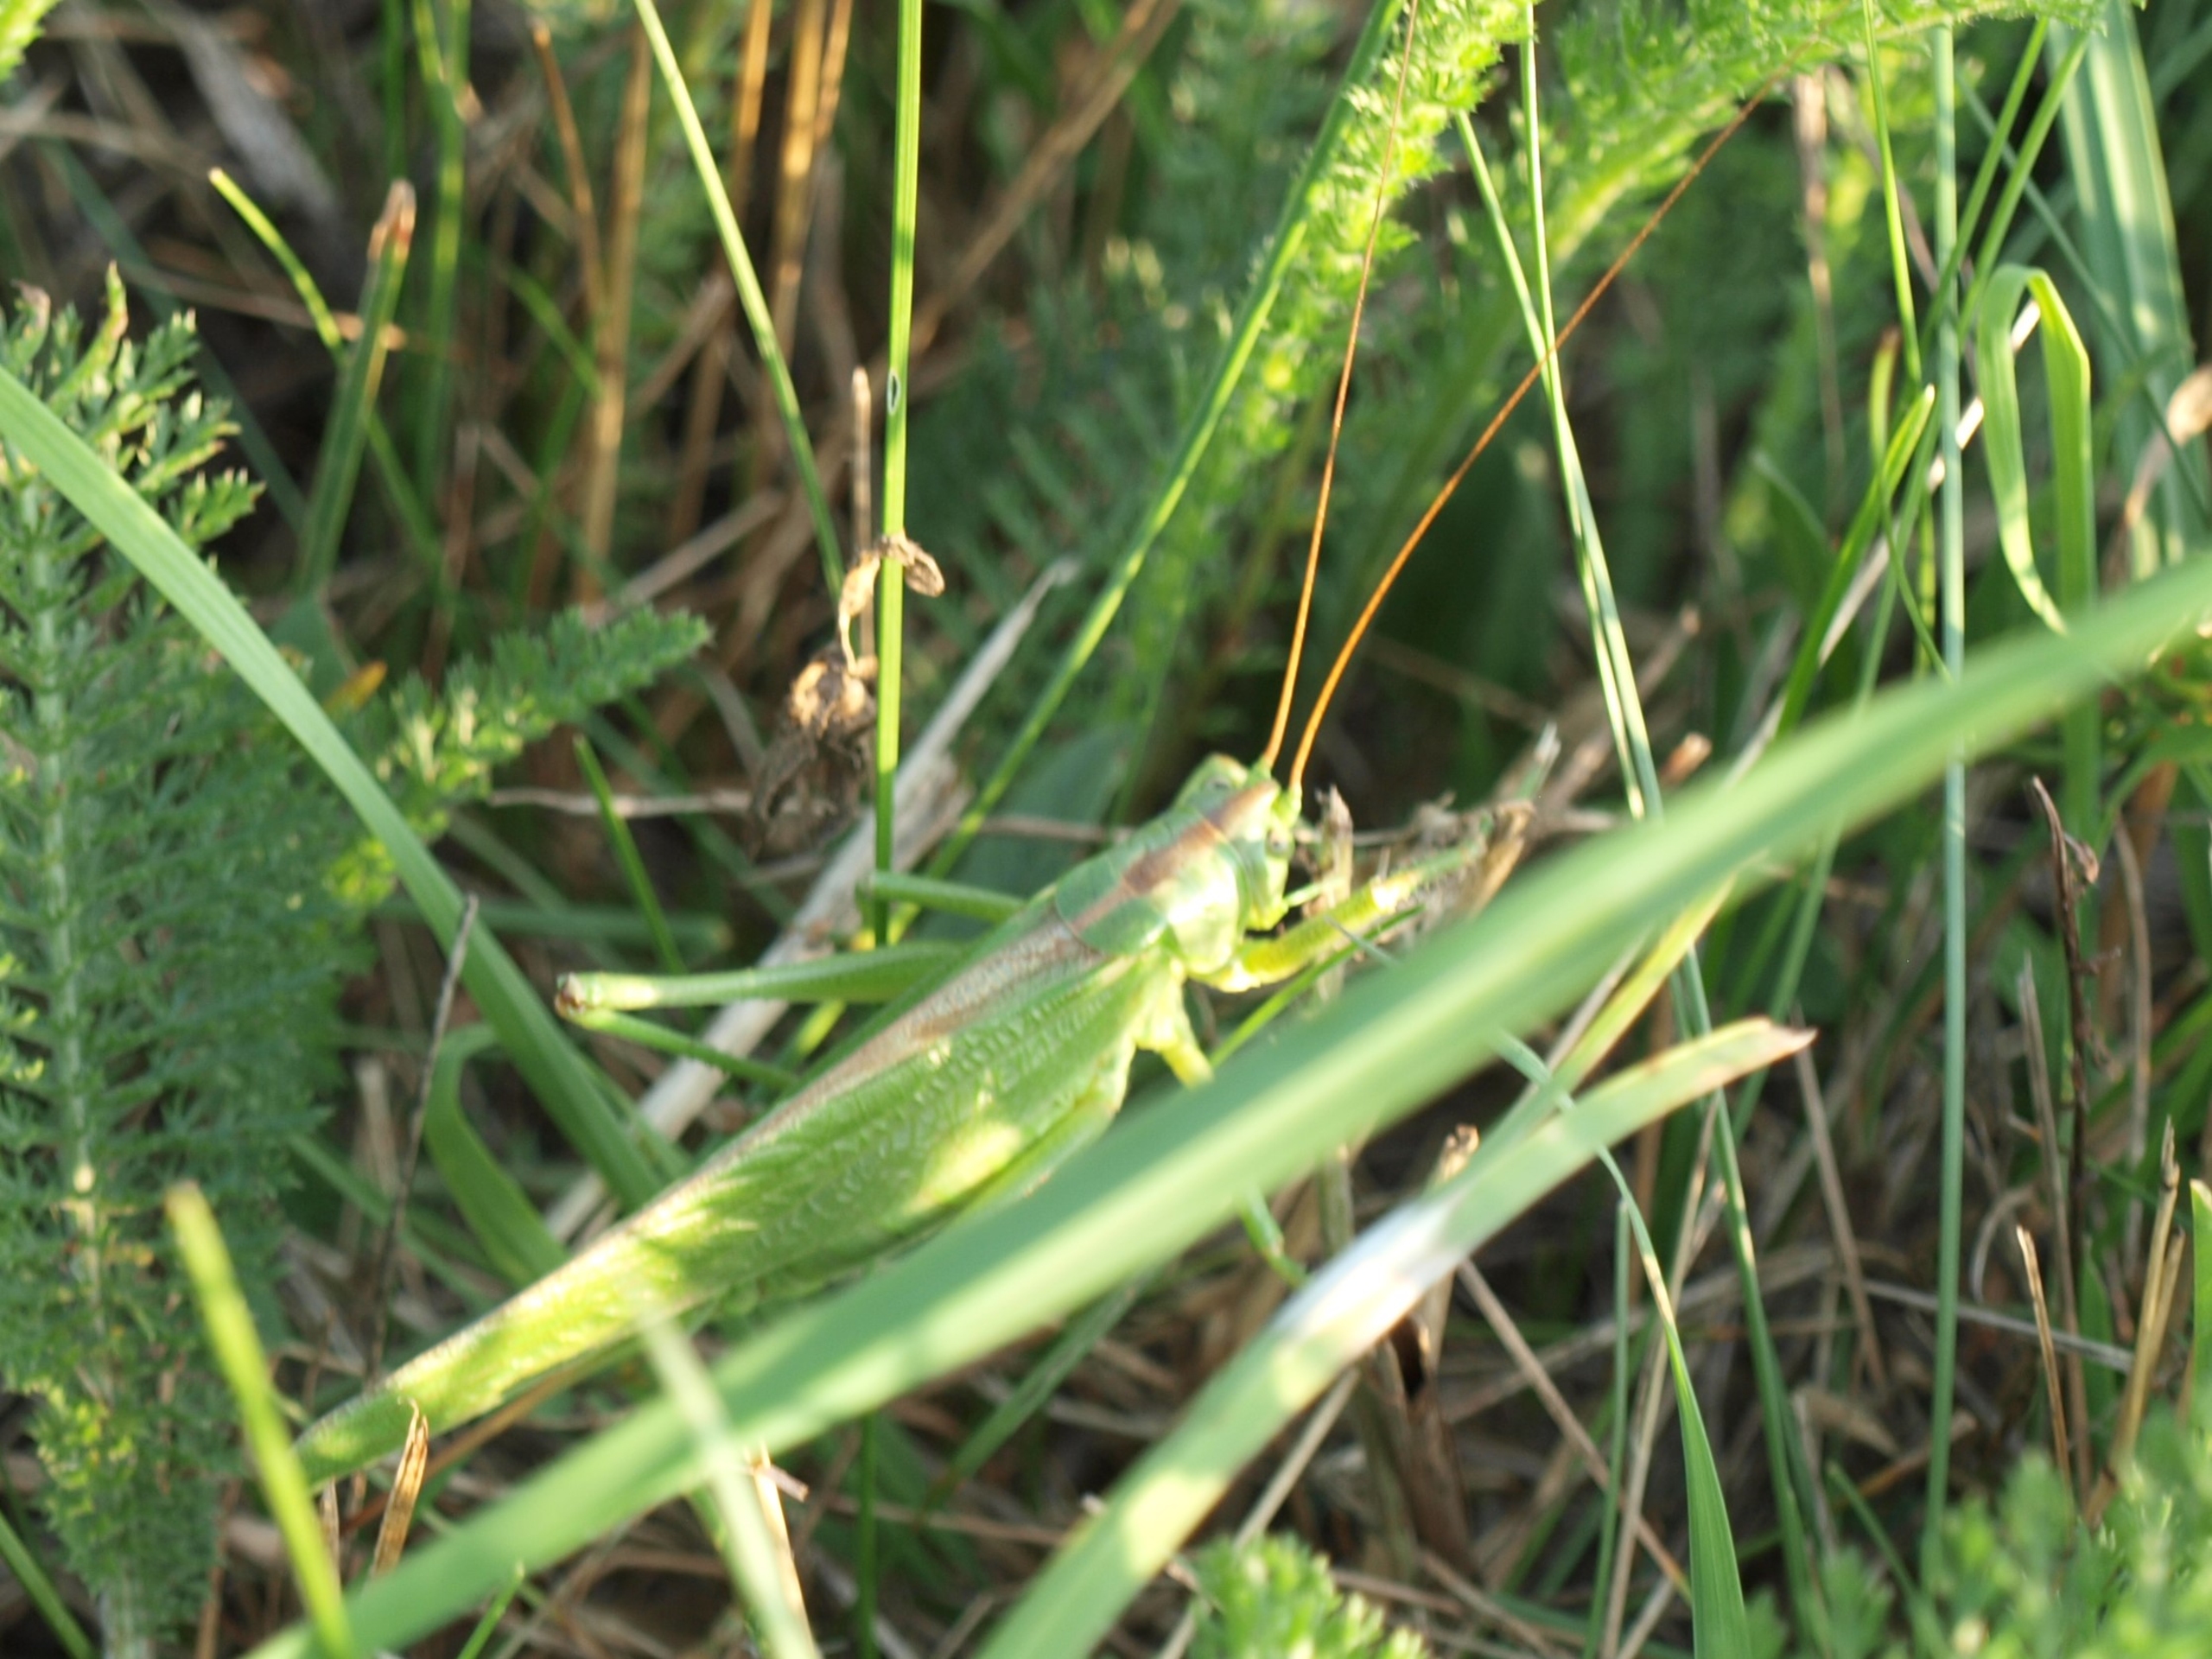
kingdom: Animalia
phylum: Arthropoda
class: Insecta
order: Orthoptera
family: Tettigoniidae
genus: Tettigonia
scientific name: Tettigonia viridissima
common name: Stor grøn løvgræshoppe
